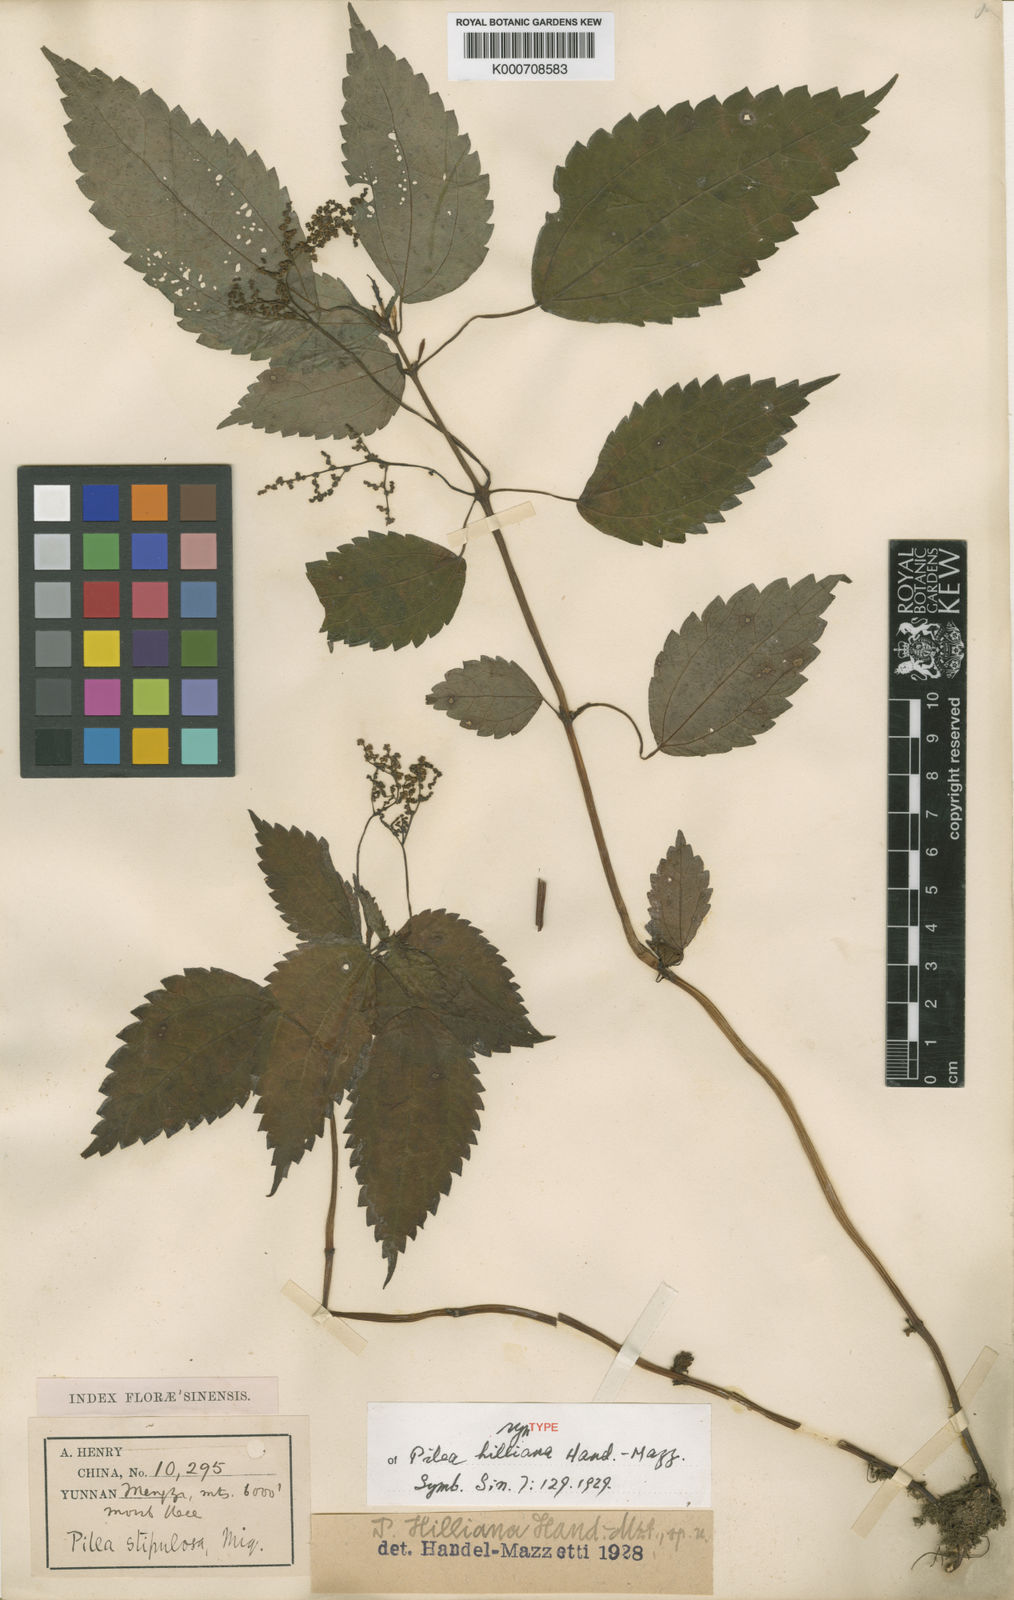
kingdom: Plantae
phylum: Tracheophyta
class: Magnoliopsida
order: Rosales
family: Urticaceae
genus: Achudemia
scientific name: Achudemia hilliana
